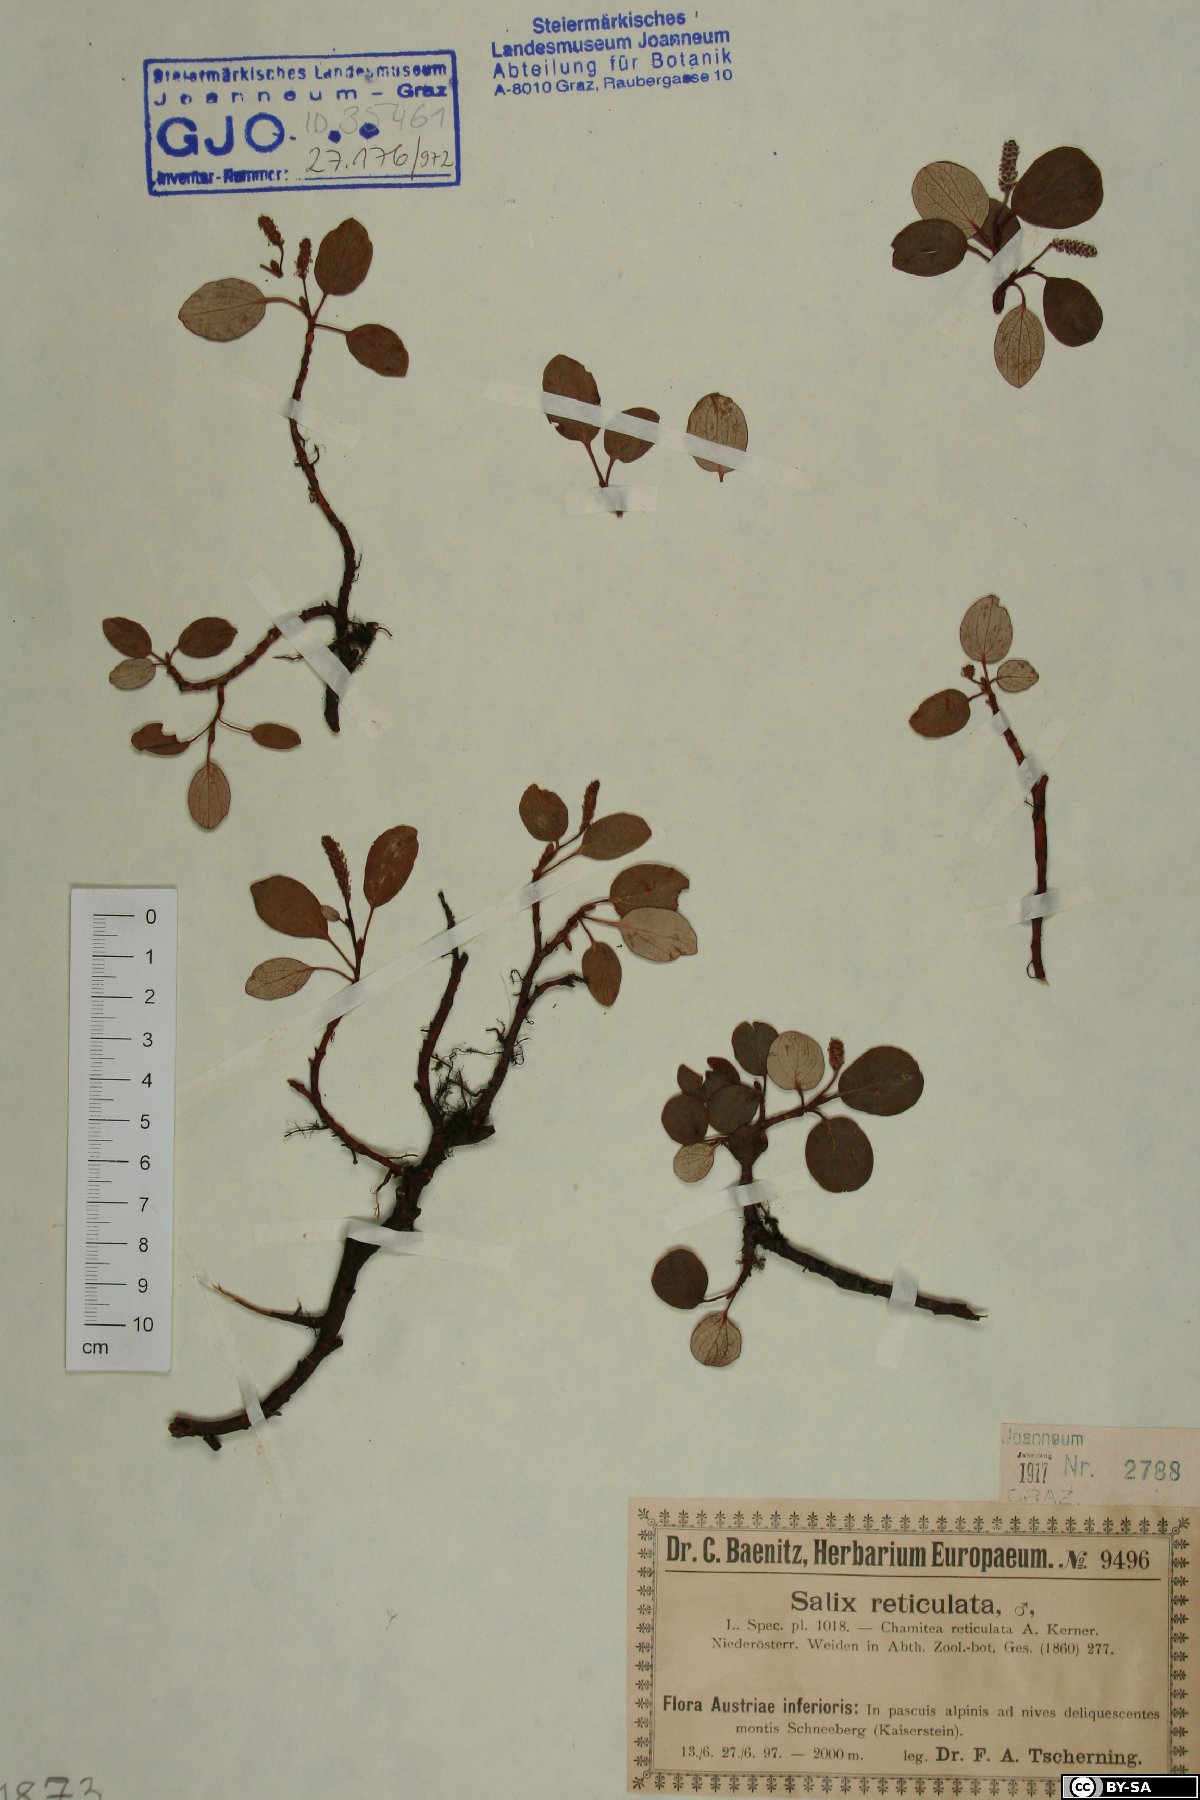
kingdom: Plantae
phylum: Tracheophyta
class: Magnoliopsida
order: Malpighiales
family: Salicaceae
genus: Salix
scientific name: Salix reticulata
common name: Net-leaved willow
